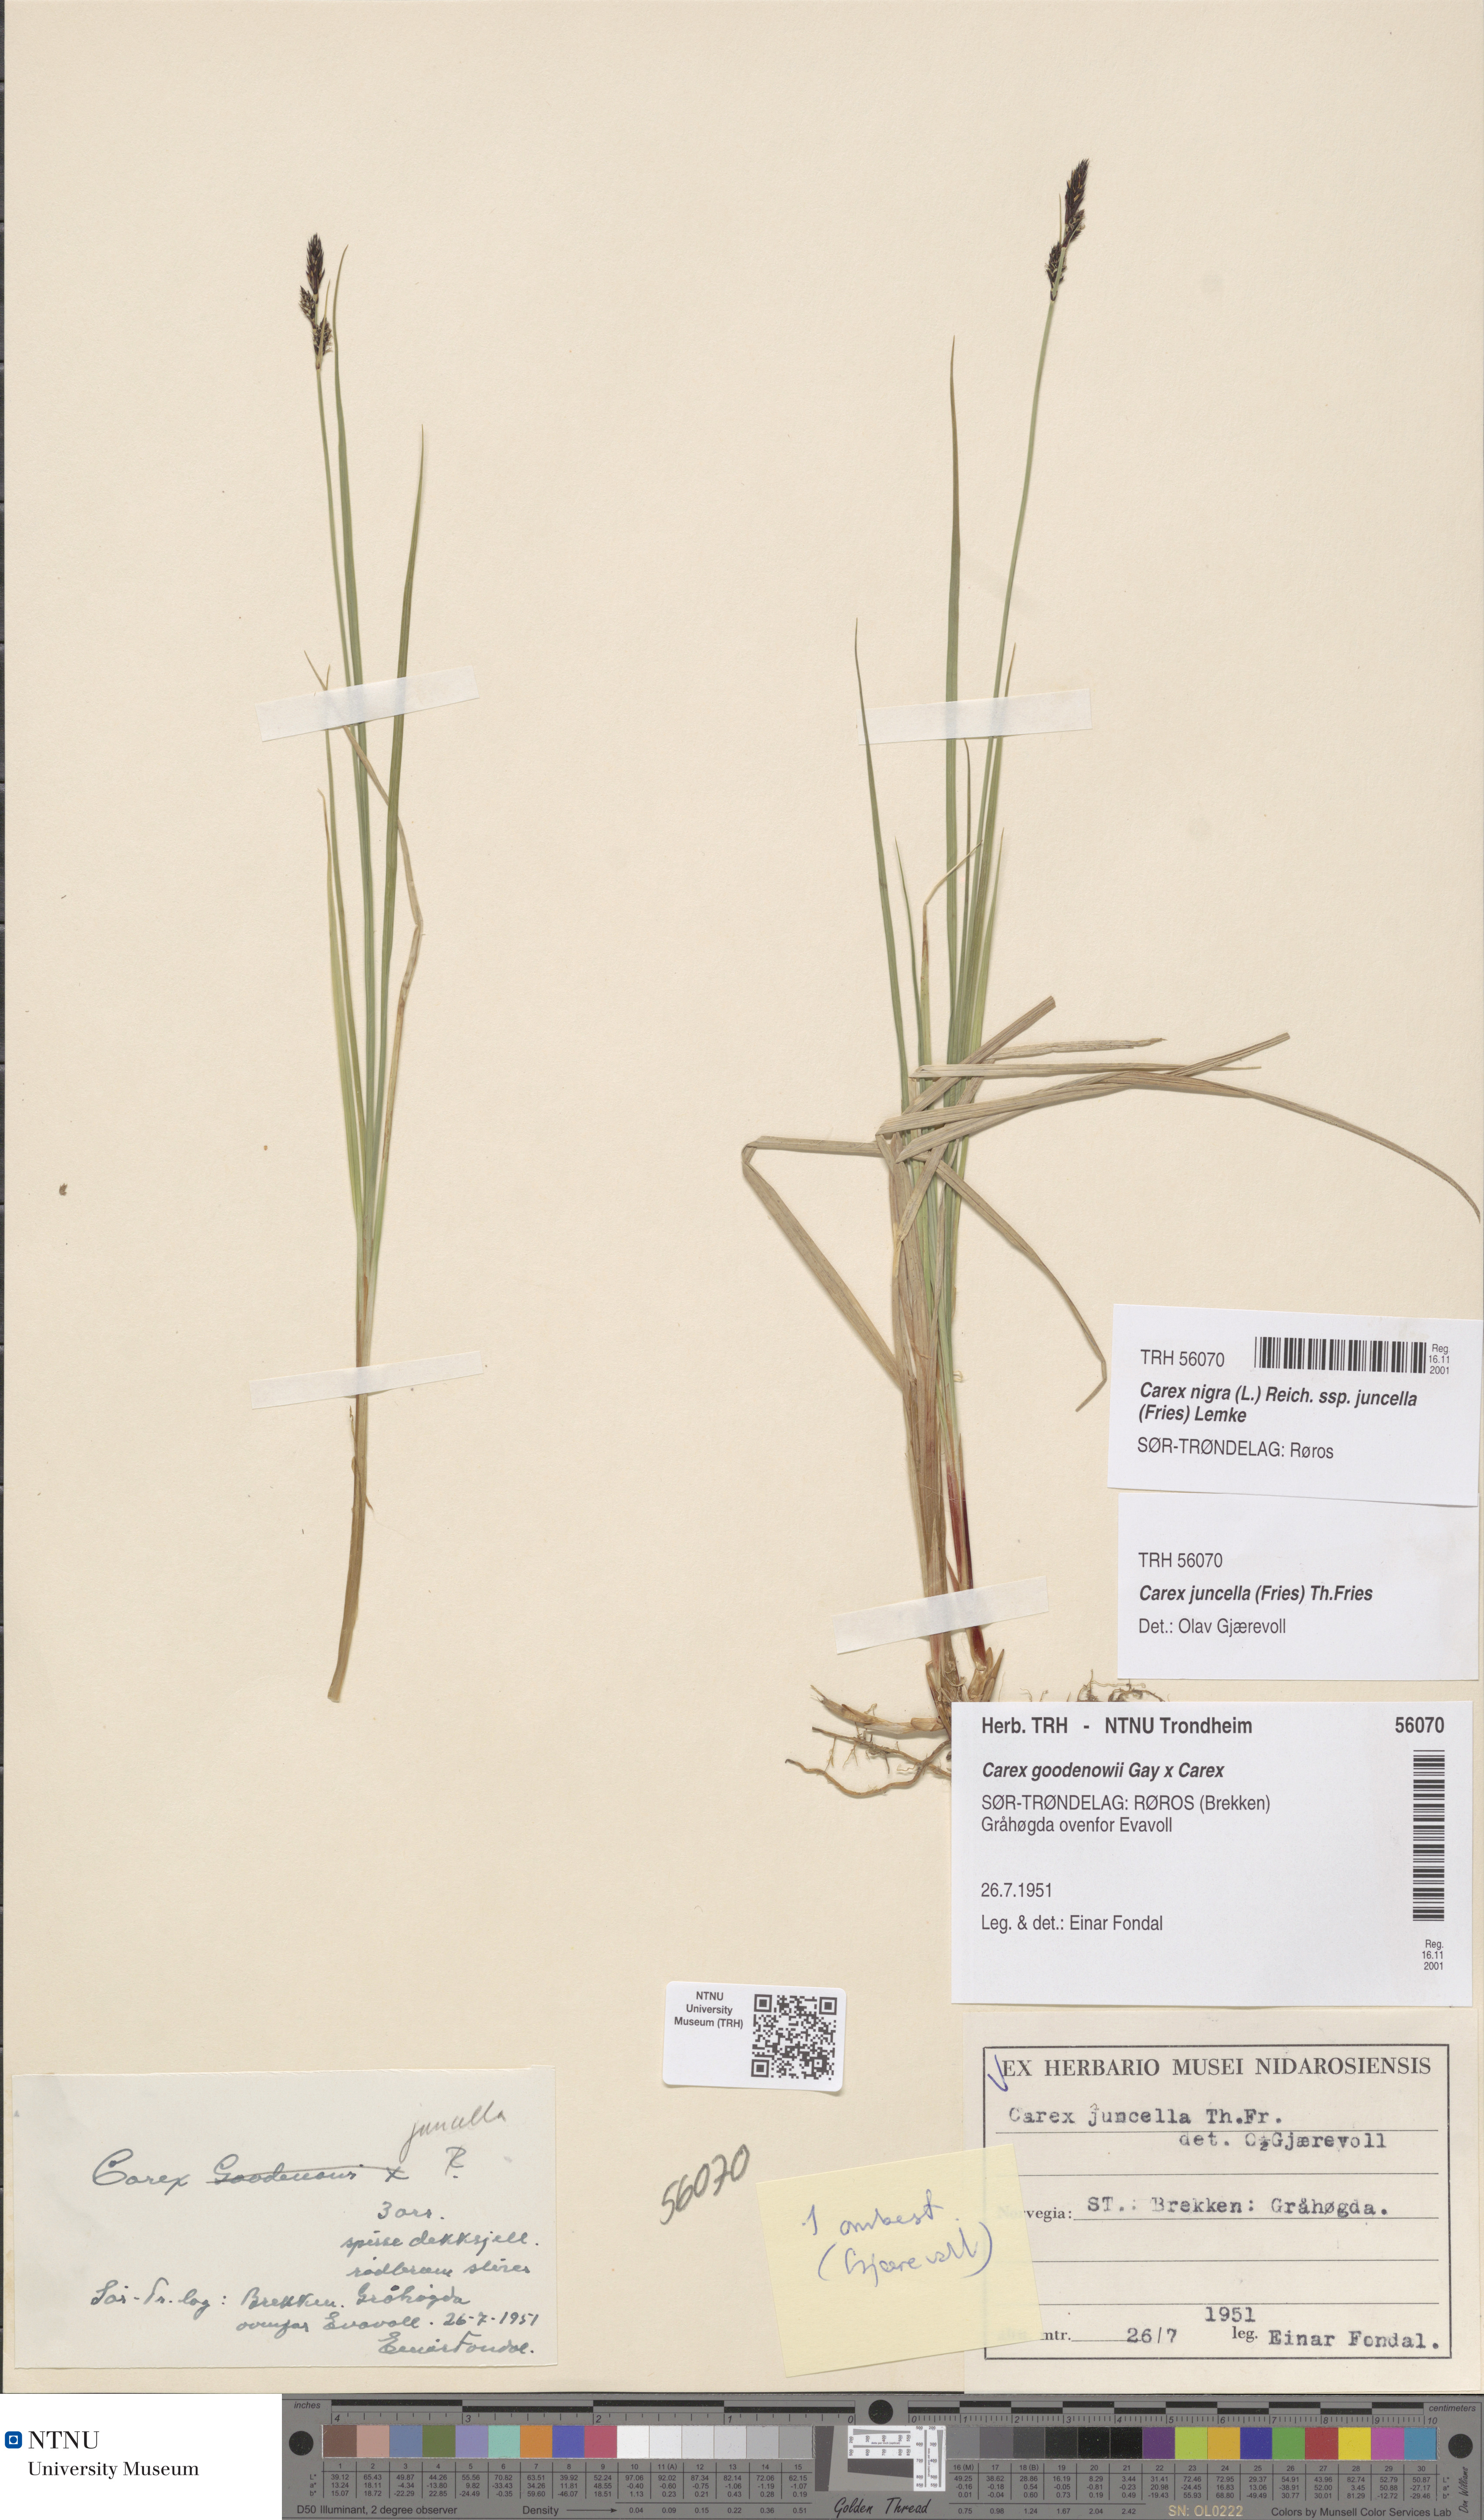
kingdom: Plantae
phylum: Tracheophyta
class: Liliopsida
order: Poales
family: Cyperaceae
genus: Carex
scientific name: Carex nigra
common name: Common sedge
